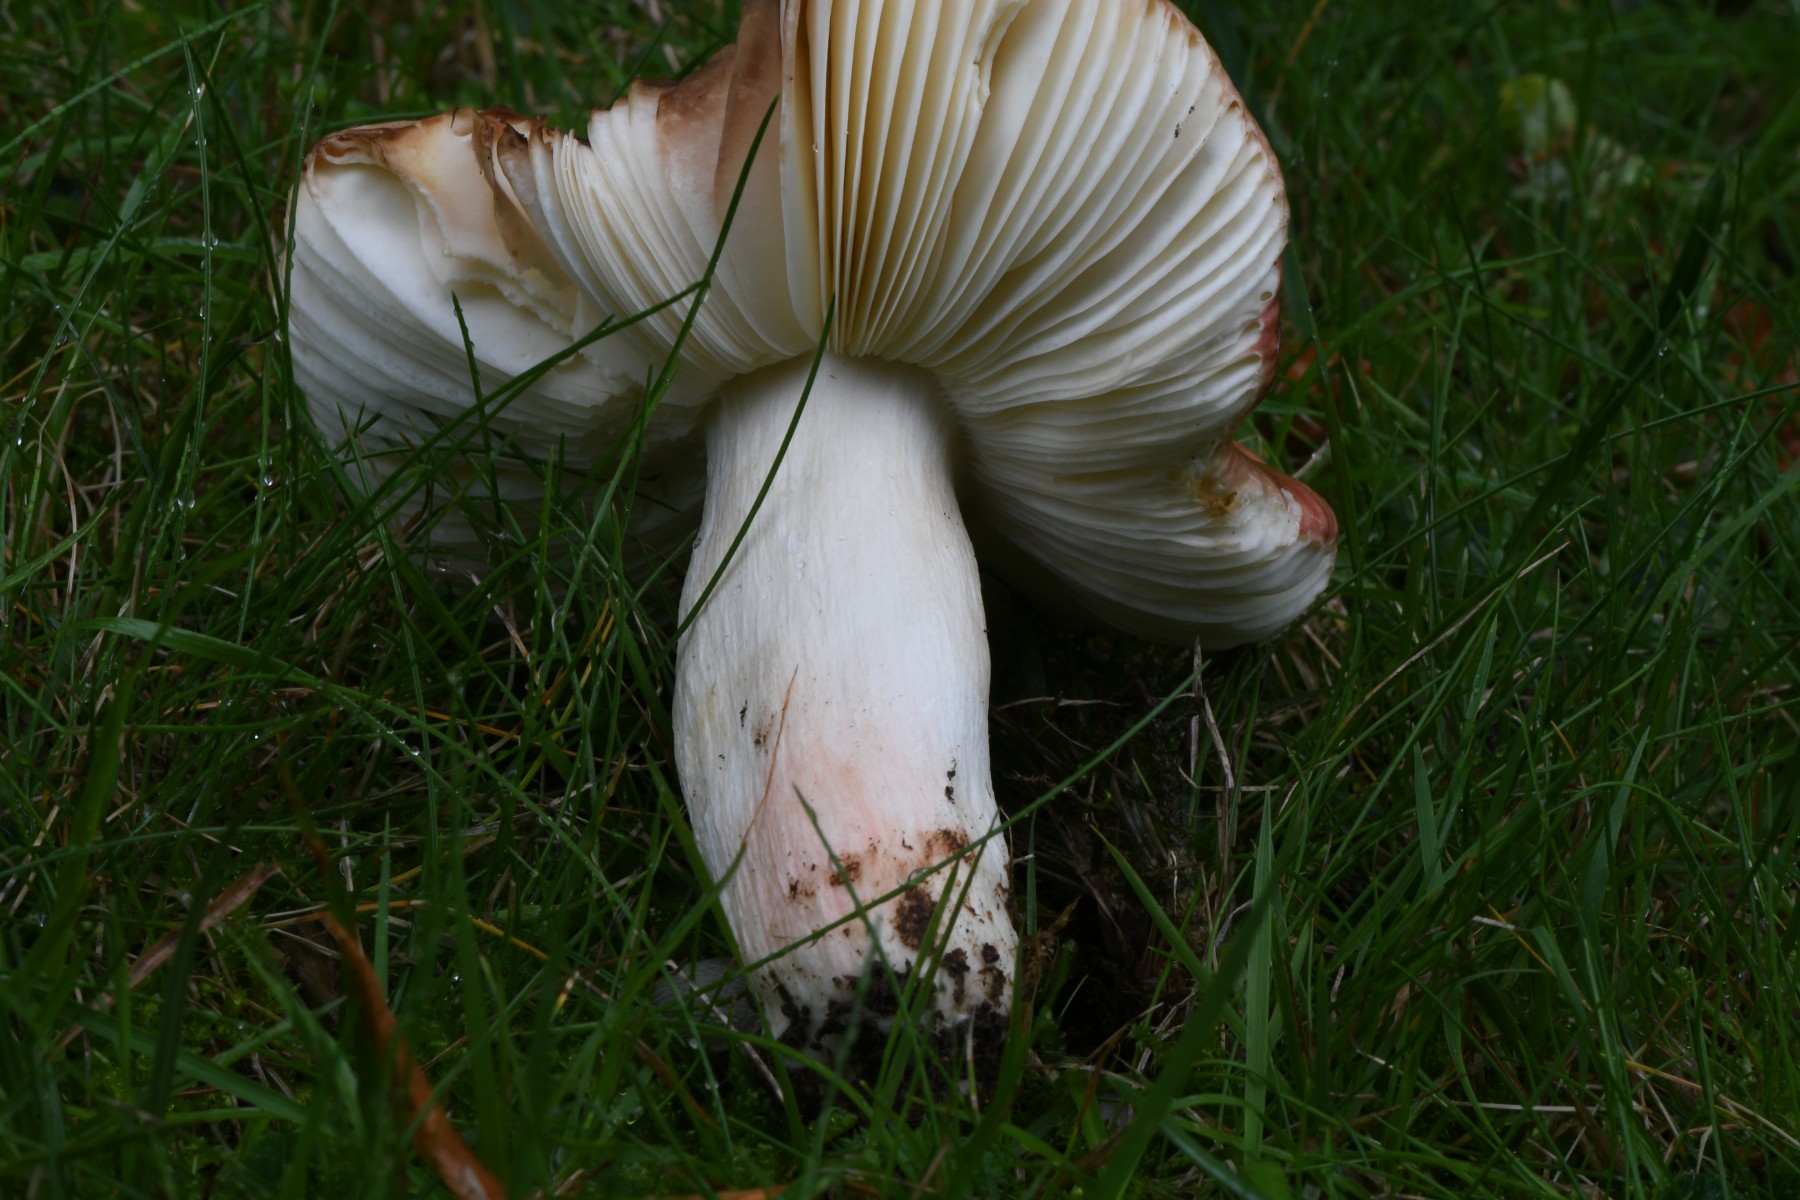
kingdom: Fungi
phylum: Basidiomycota
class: Agaricomycetes
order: Russulales
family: Russulaceae
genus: Russula
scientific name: Russula
